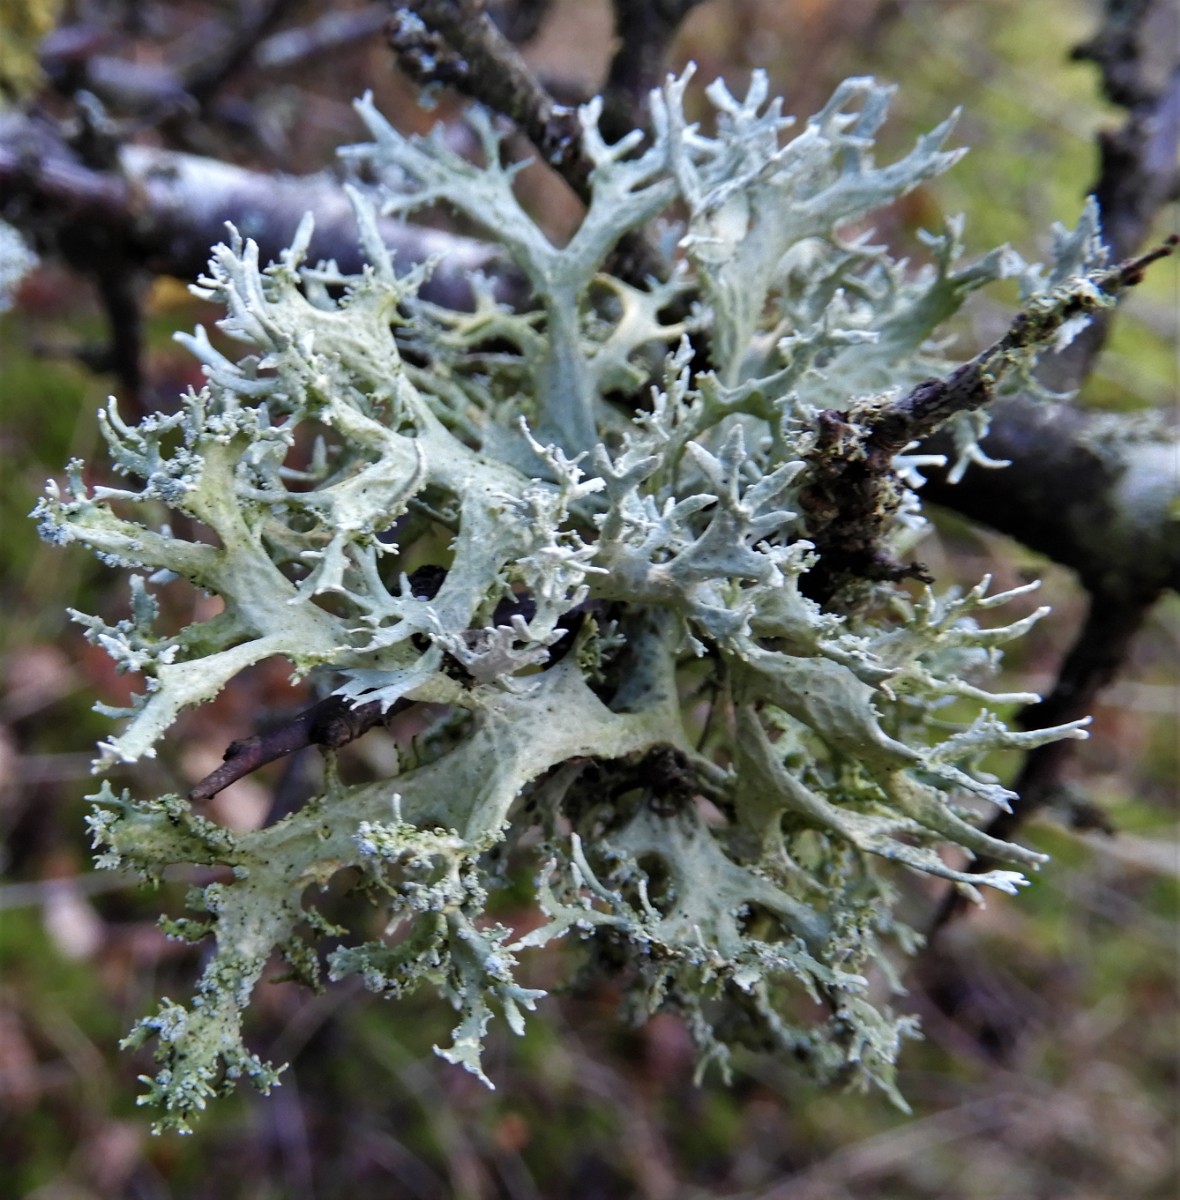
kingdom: Fungi
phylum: Ascomycota
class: Lecanoromycetes
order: Lecanorales
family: Parmeliaceae
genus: Evernia
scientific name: Evernia prunastri
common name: almindelig slåenlav
